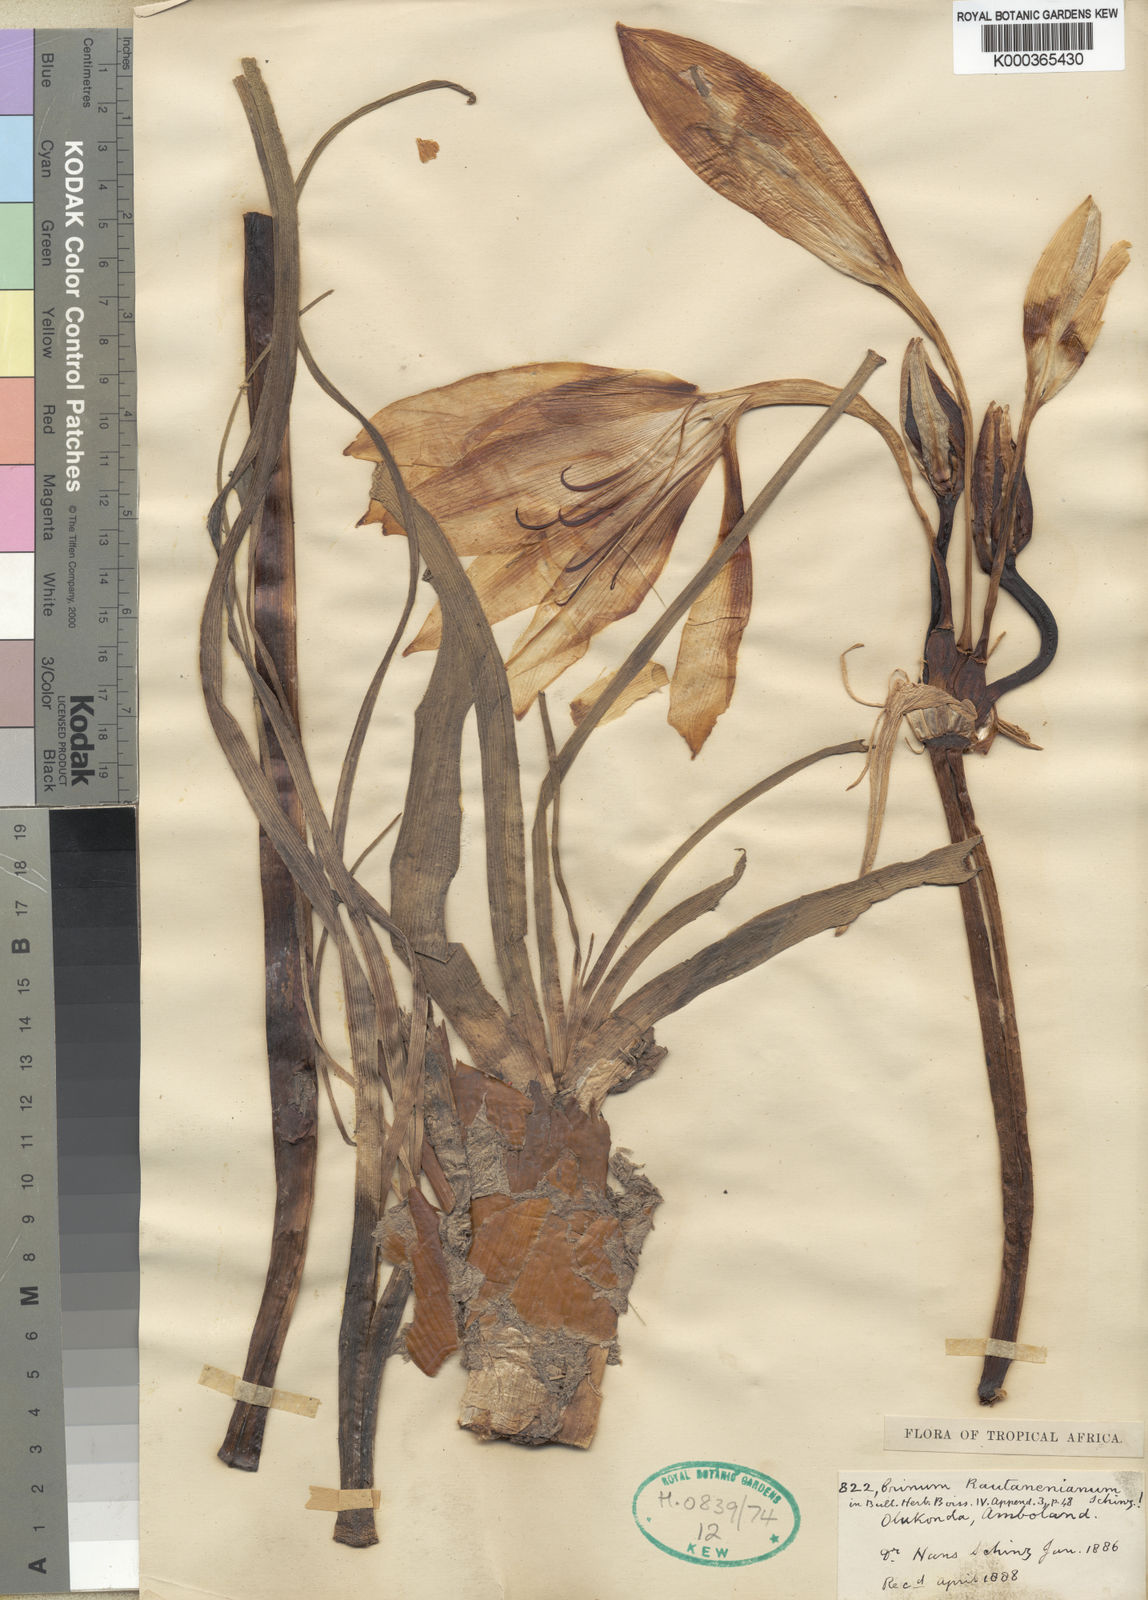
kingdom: Plantae
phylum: Tracheophyta
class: Liliopsida
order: Asparagales
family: Amaryllidaceae
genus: Crinum
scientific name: Crinum rautanenianum
